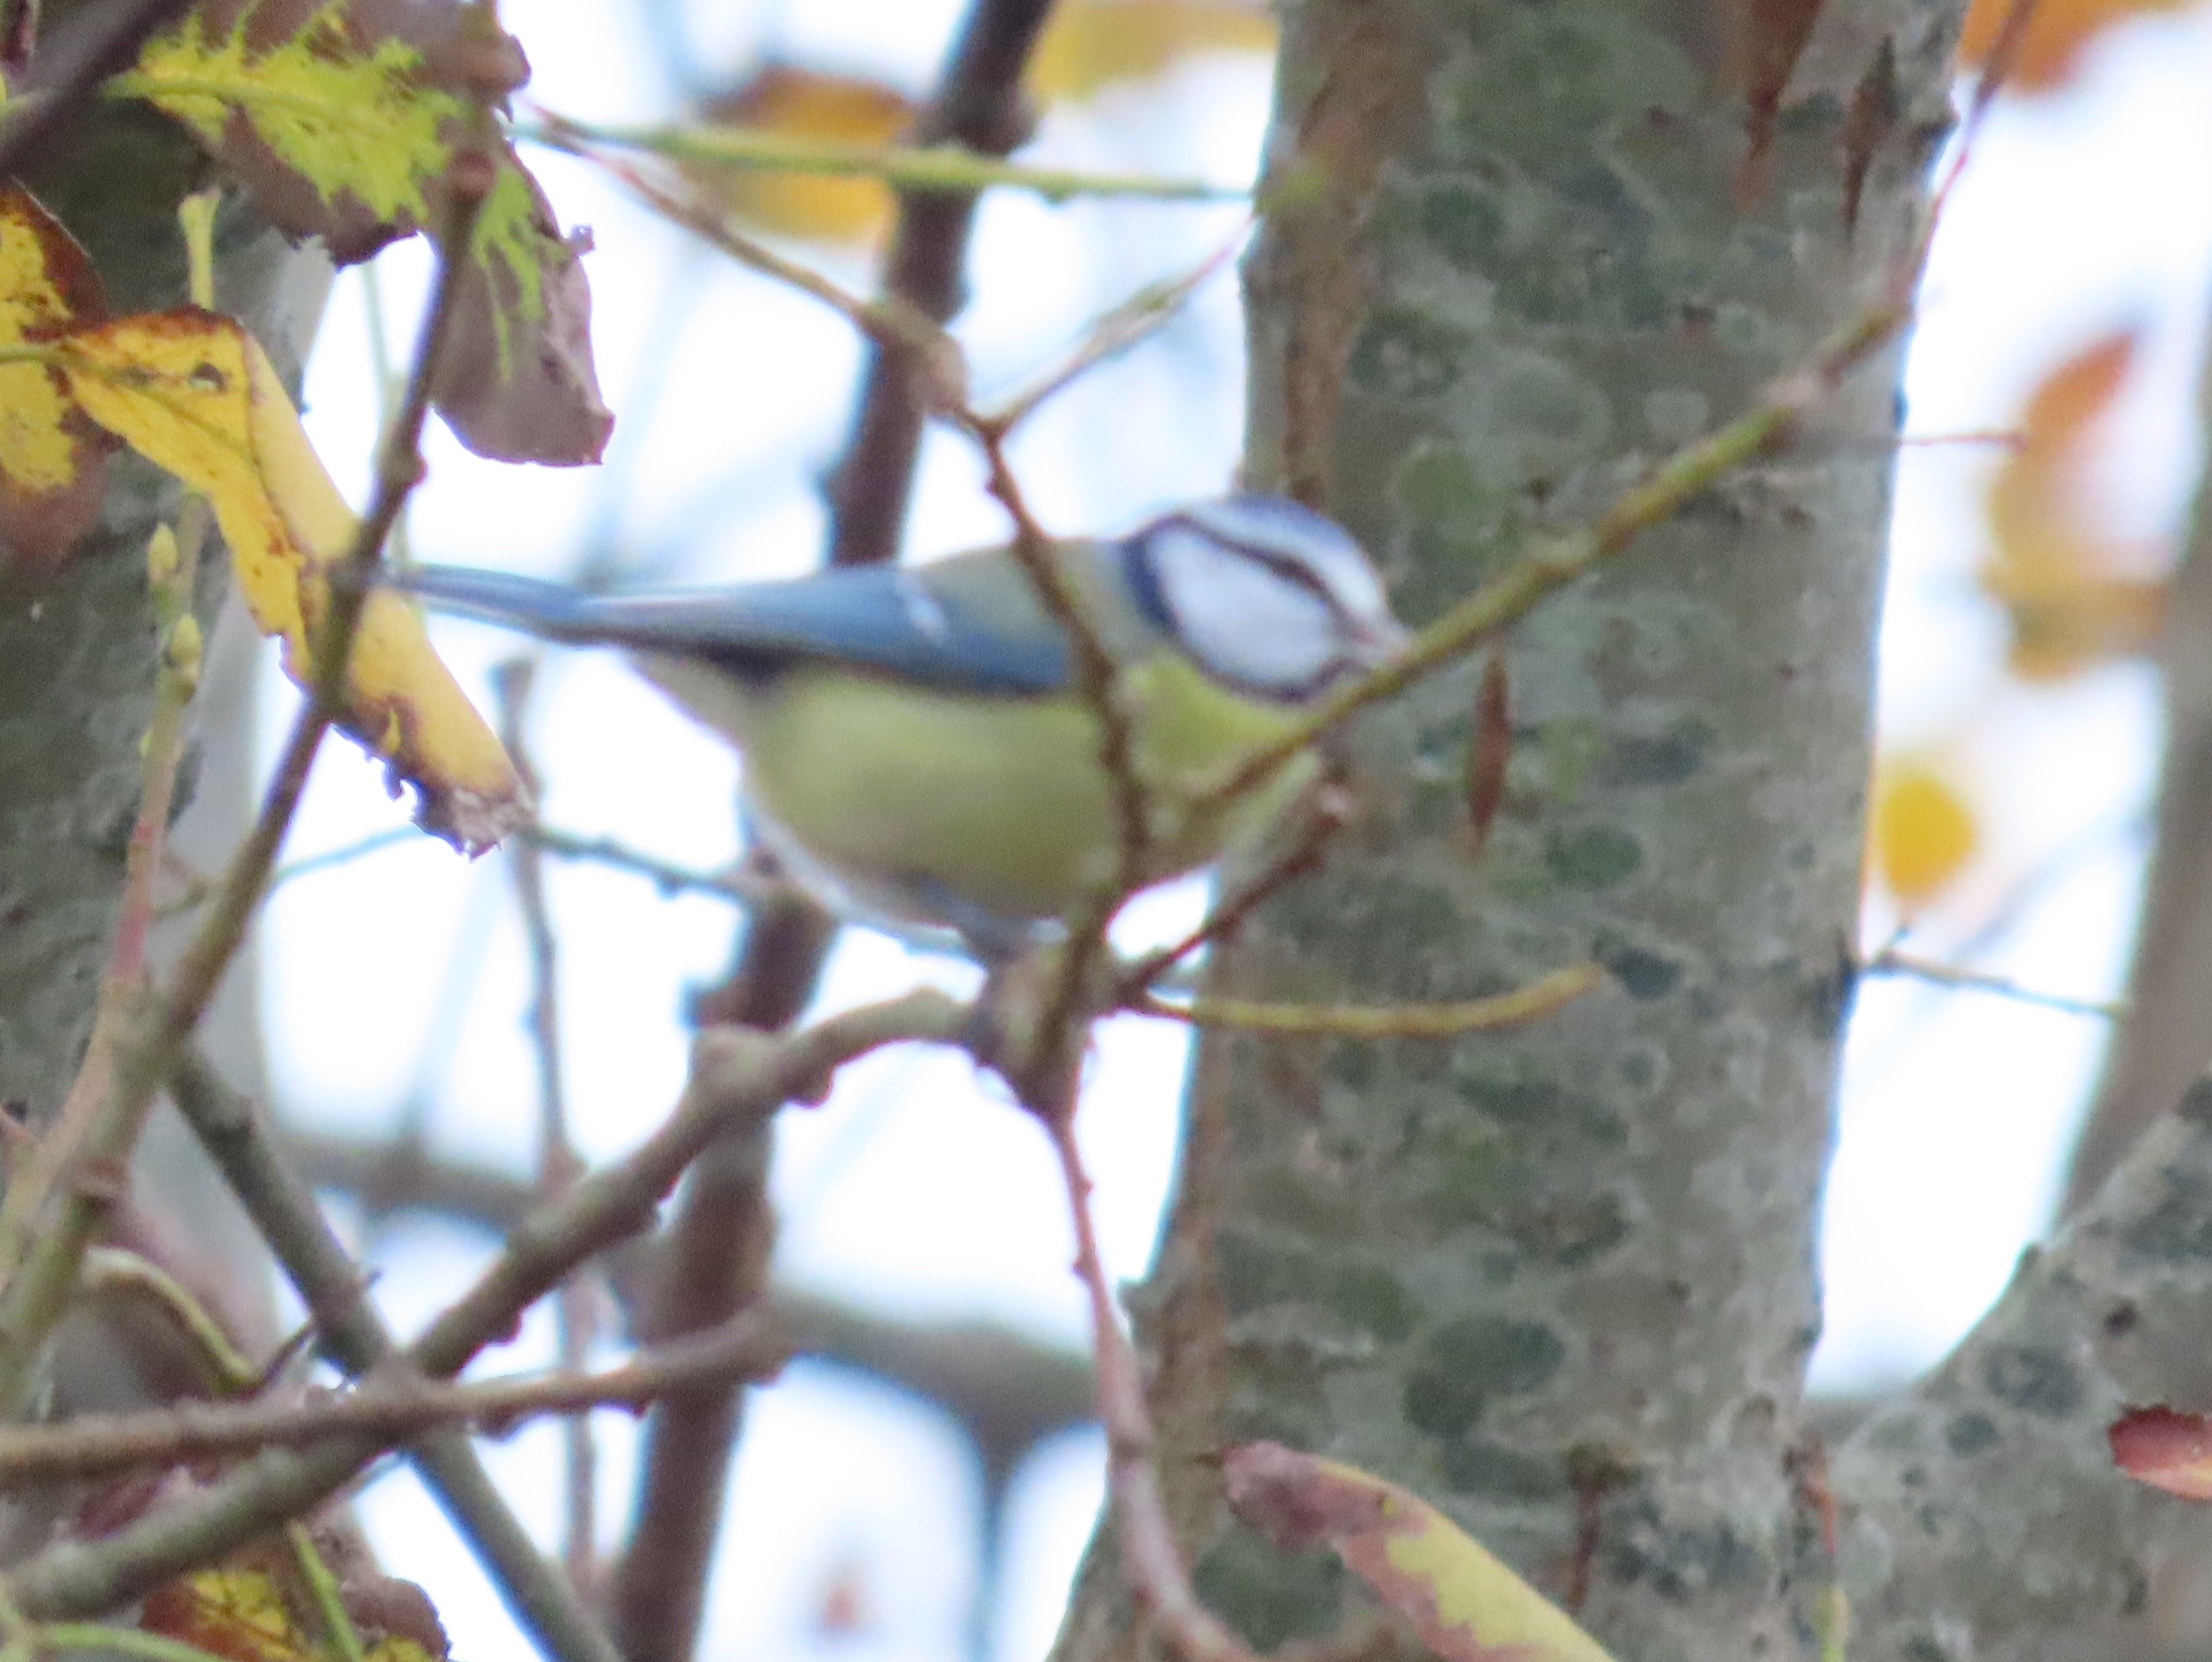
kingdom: Animalia
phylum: Chordata
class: Aves
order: Passeriformes
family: Paridae
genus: Cyanistes
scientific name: Cyanistes caeruleus
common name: Blåmejse
